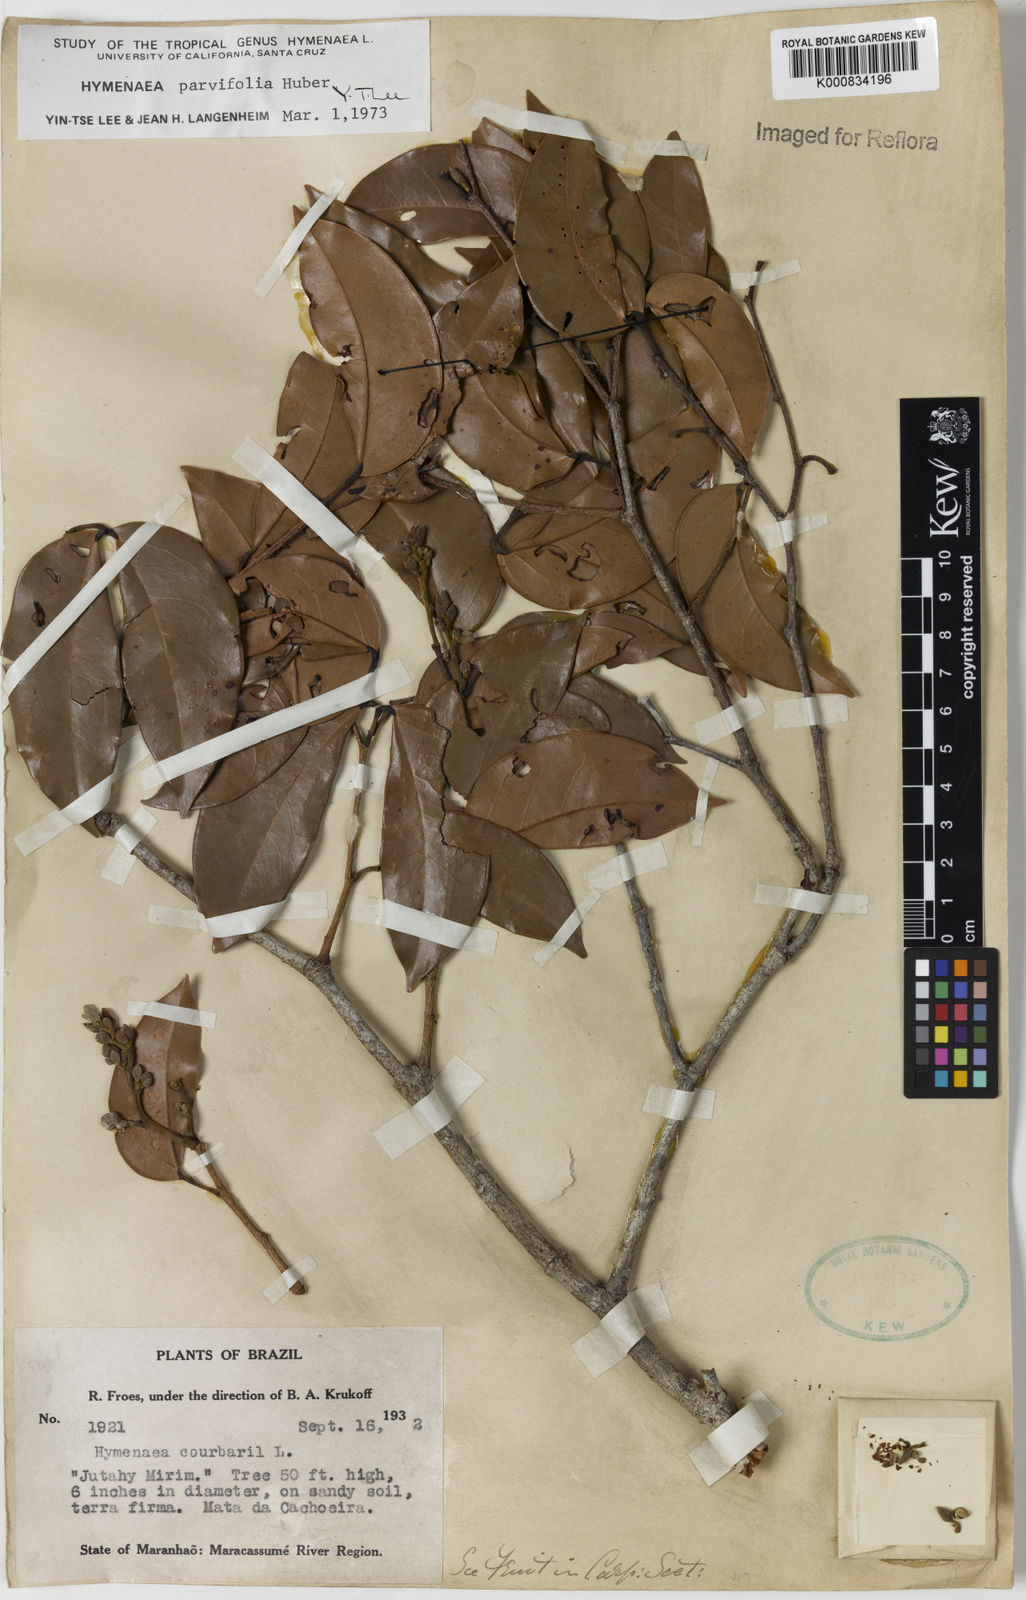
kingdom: Plantae
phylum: Tracheophyta
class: Magnoliopsida
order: Fabales
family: Fabaceae
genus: Hymenaea
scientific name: Hymenaea parvifolia
